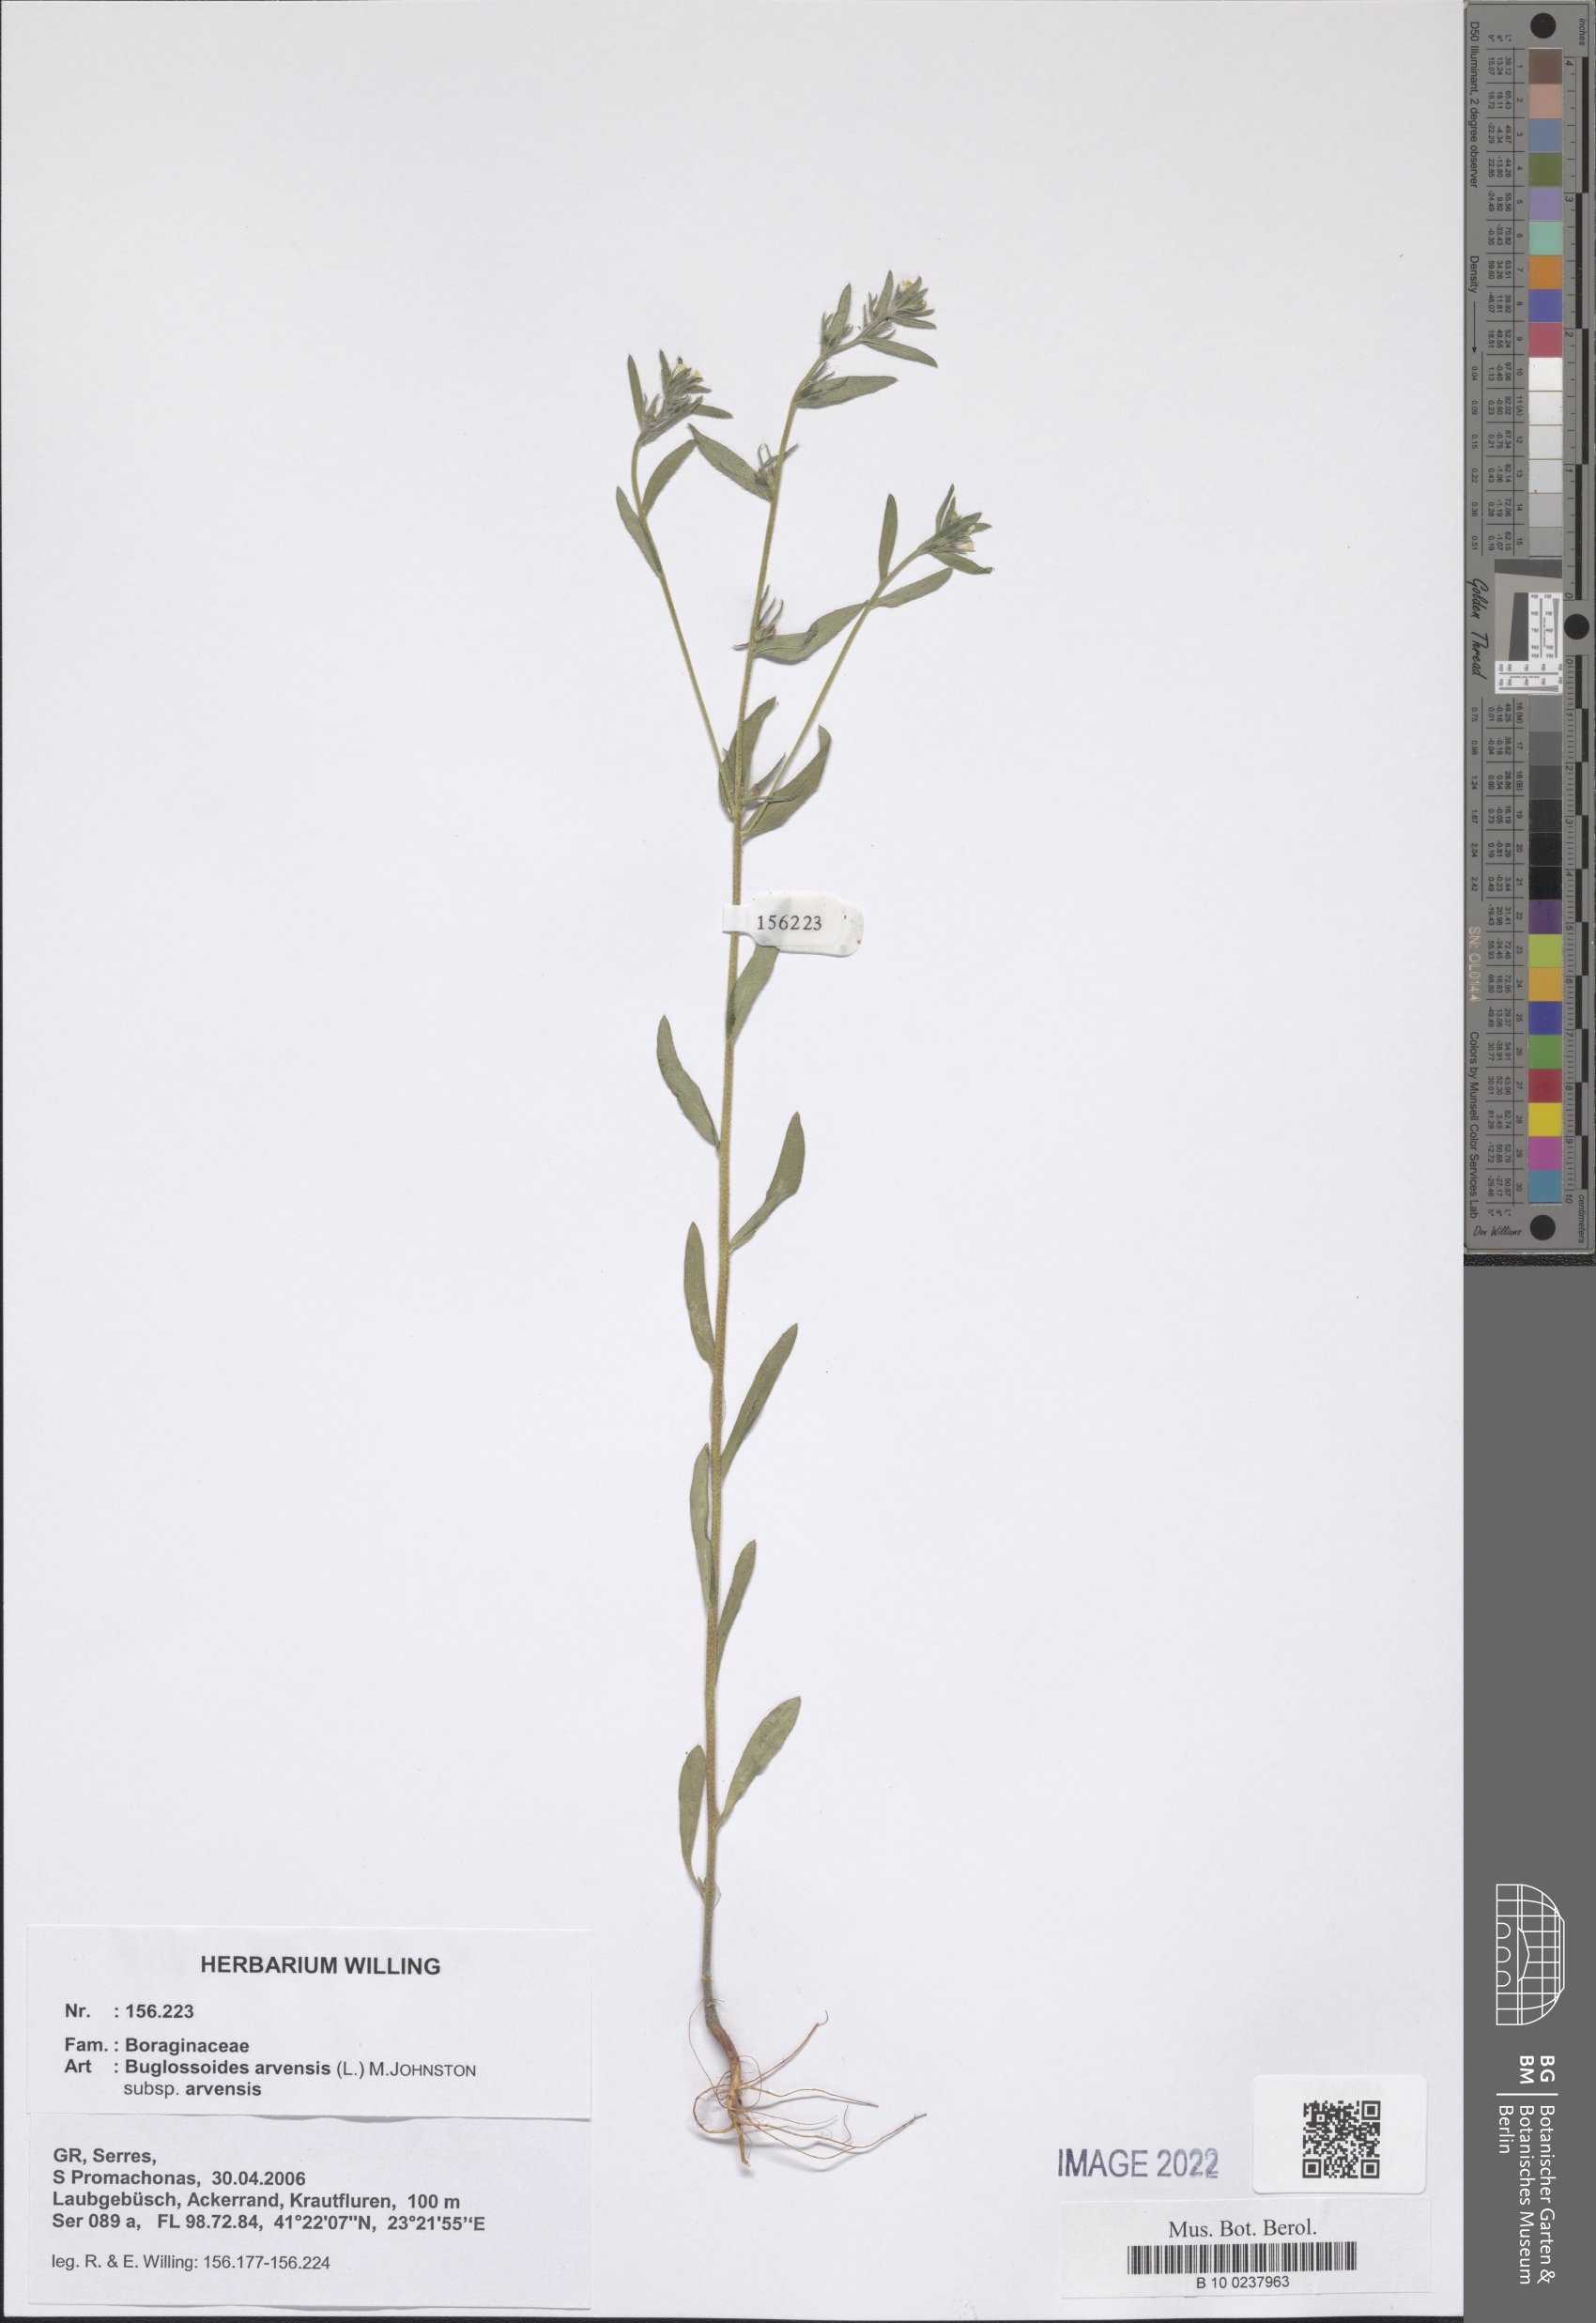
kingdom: Plantae
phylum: Tracheophyta
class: Magnoliopsida
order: Boraginales
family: Boraginaceae
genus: Buglossoides
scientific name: Buglossoides arvensis
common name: Corn gromwell
